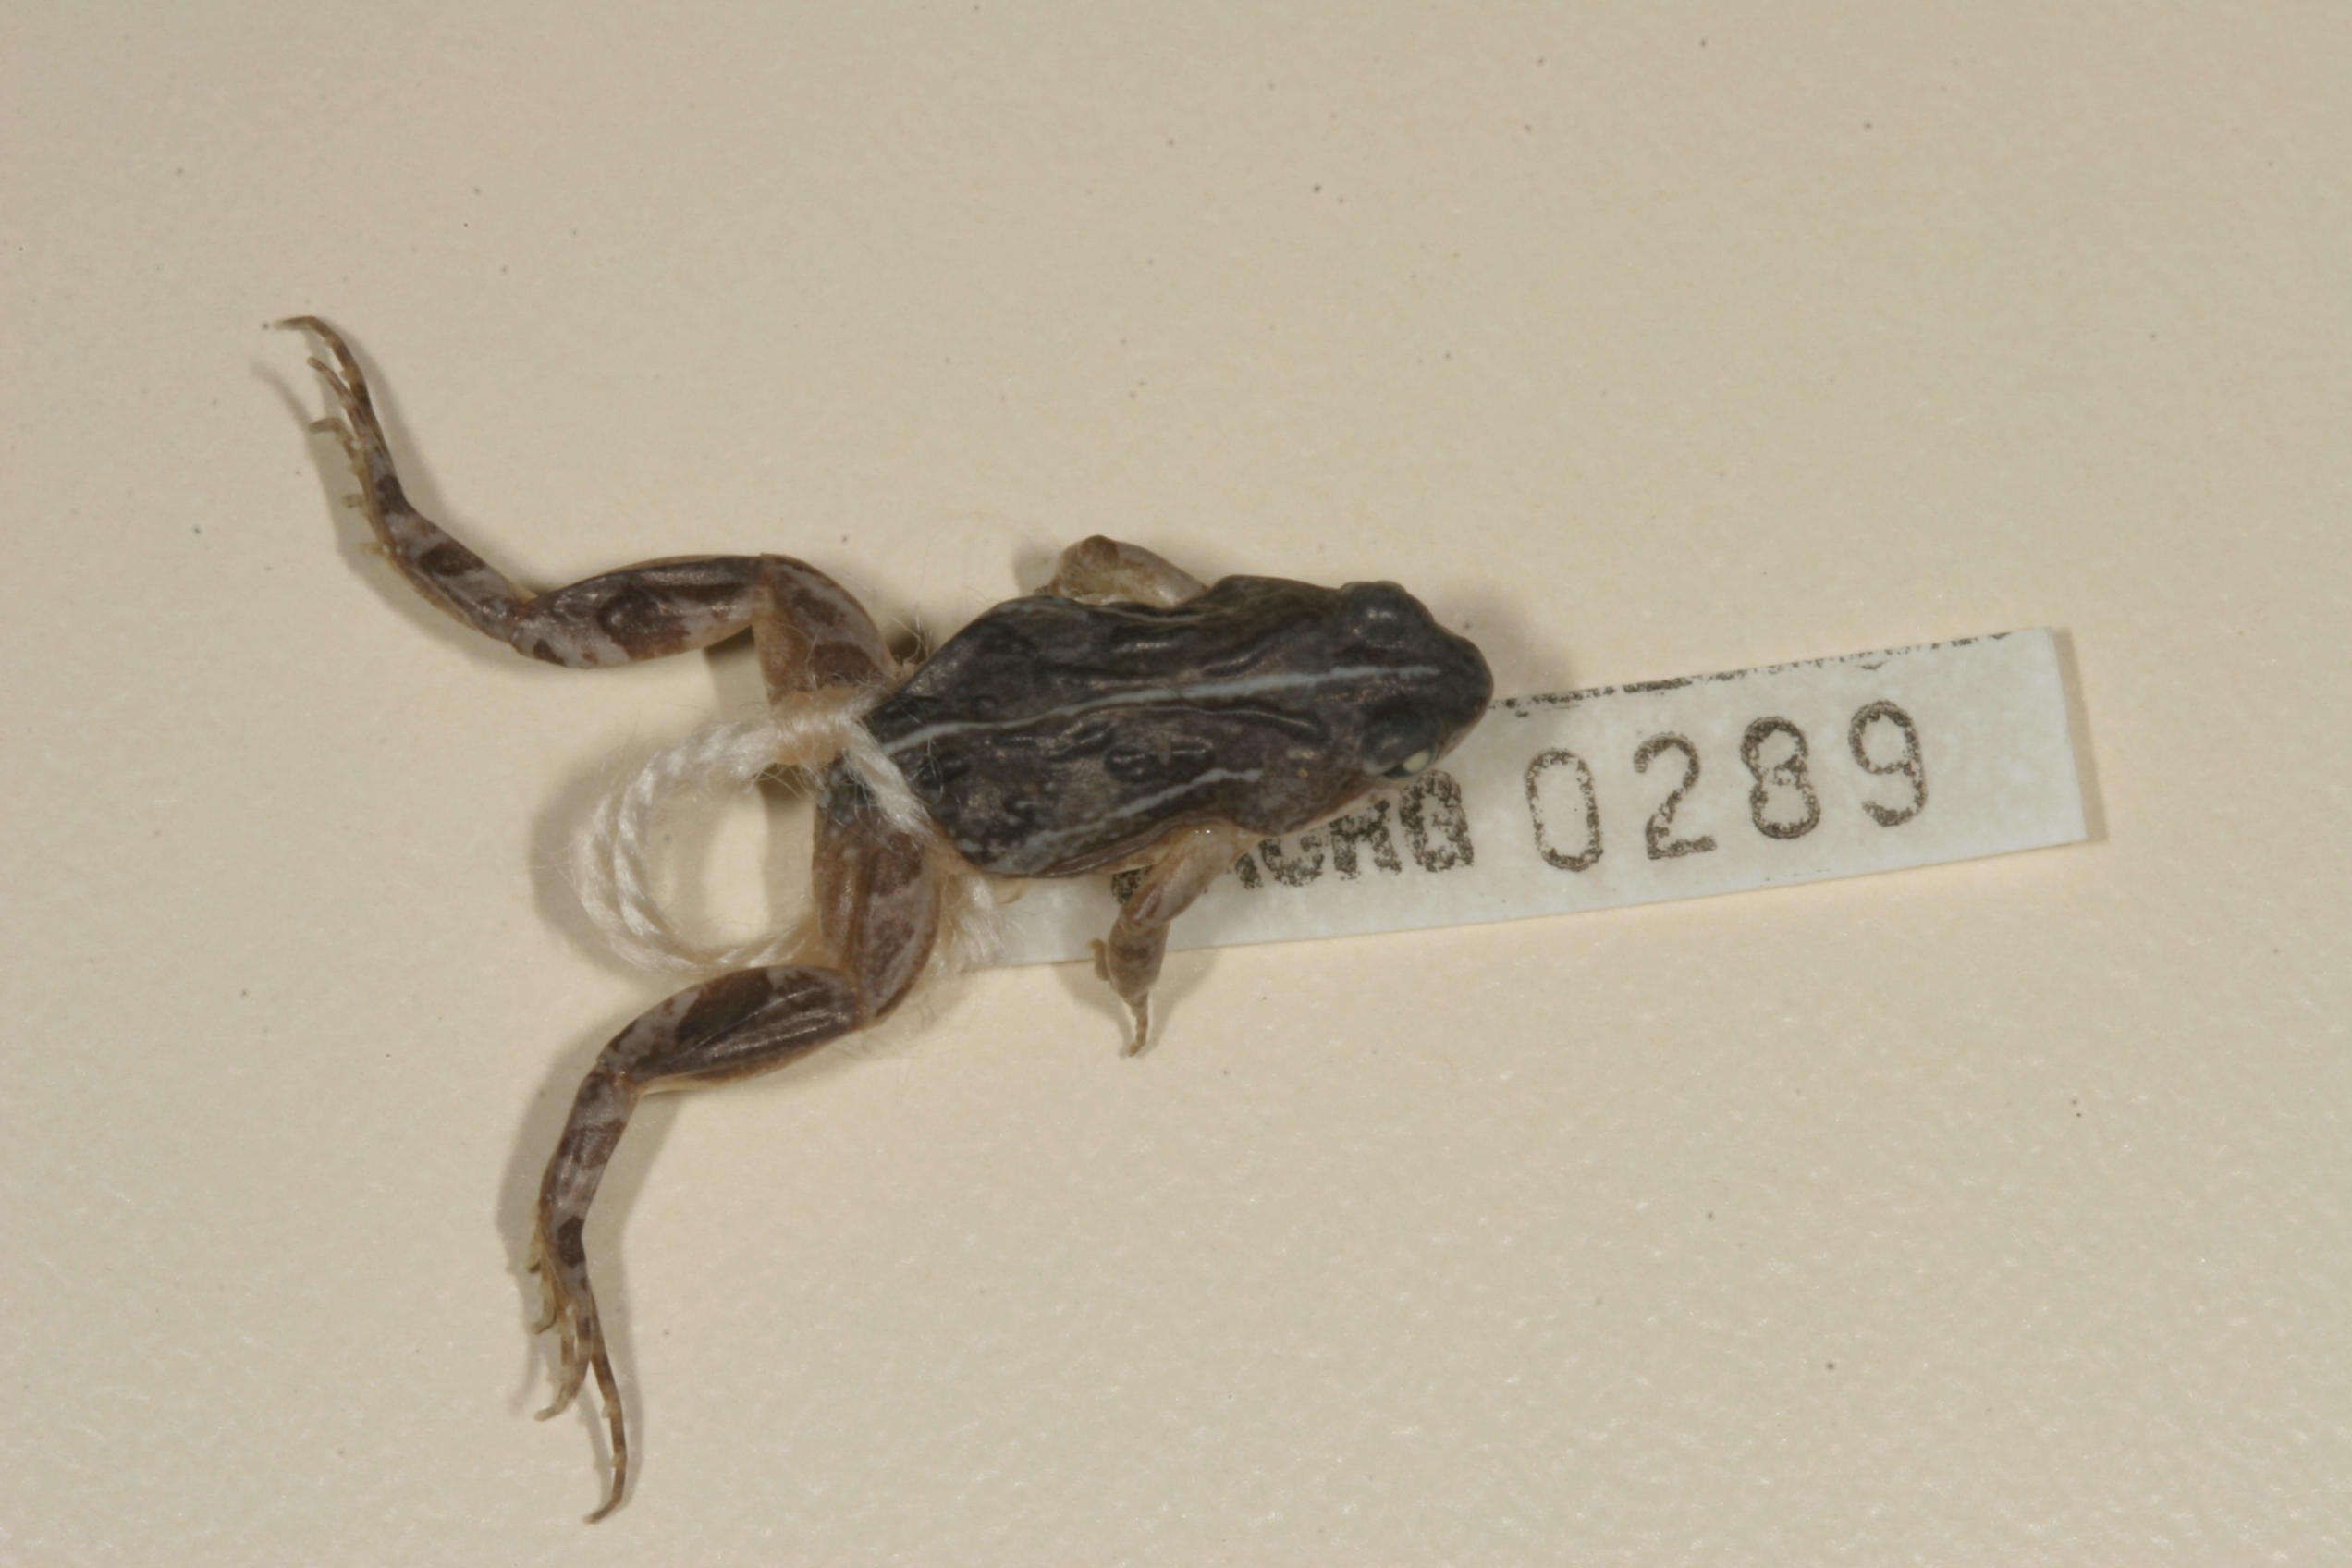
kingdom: Animalia
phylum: Chordata
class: Amphibia
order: Anura
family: Pyxicephalidae
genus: Cacosternum
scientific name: Cacosternum boettgeri
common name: Boettger's frog
